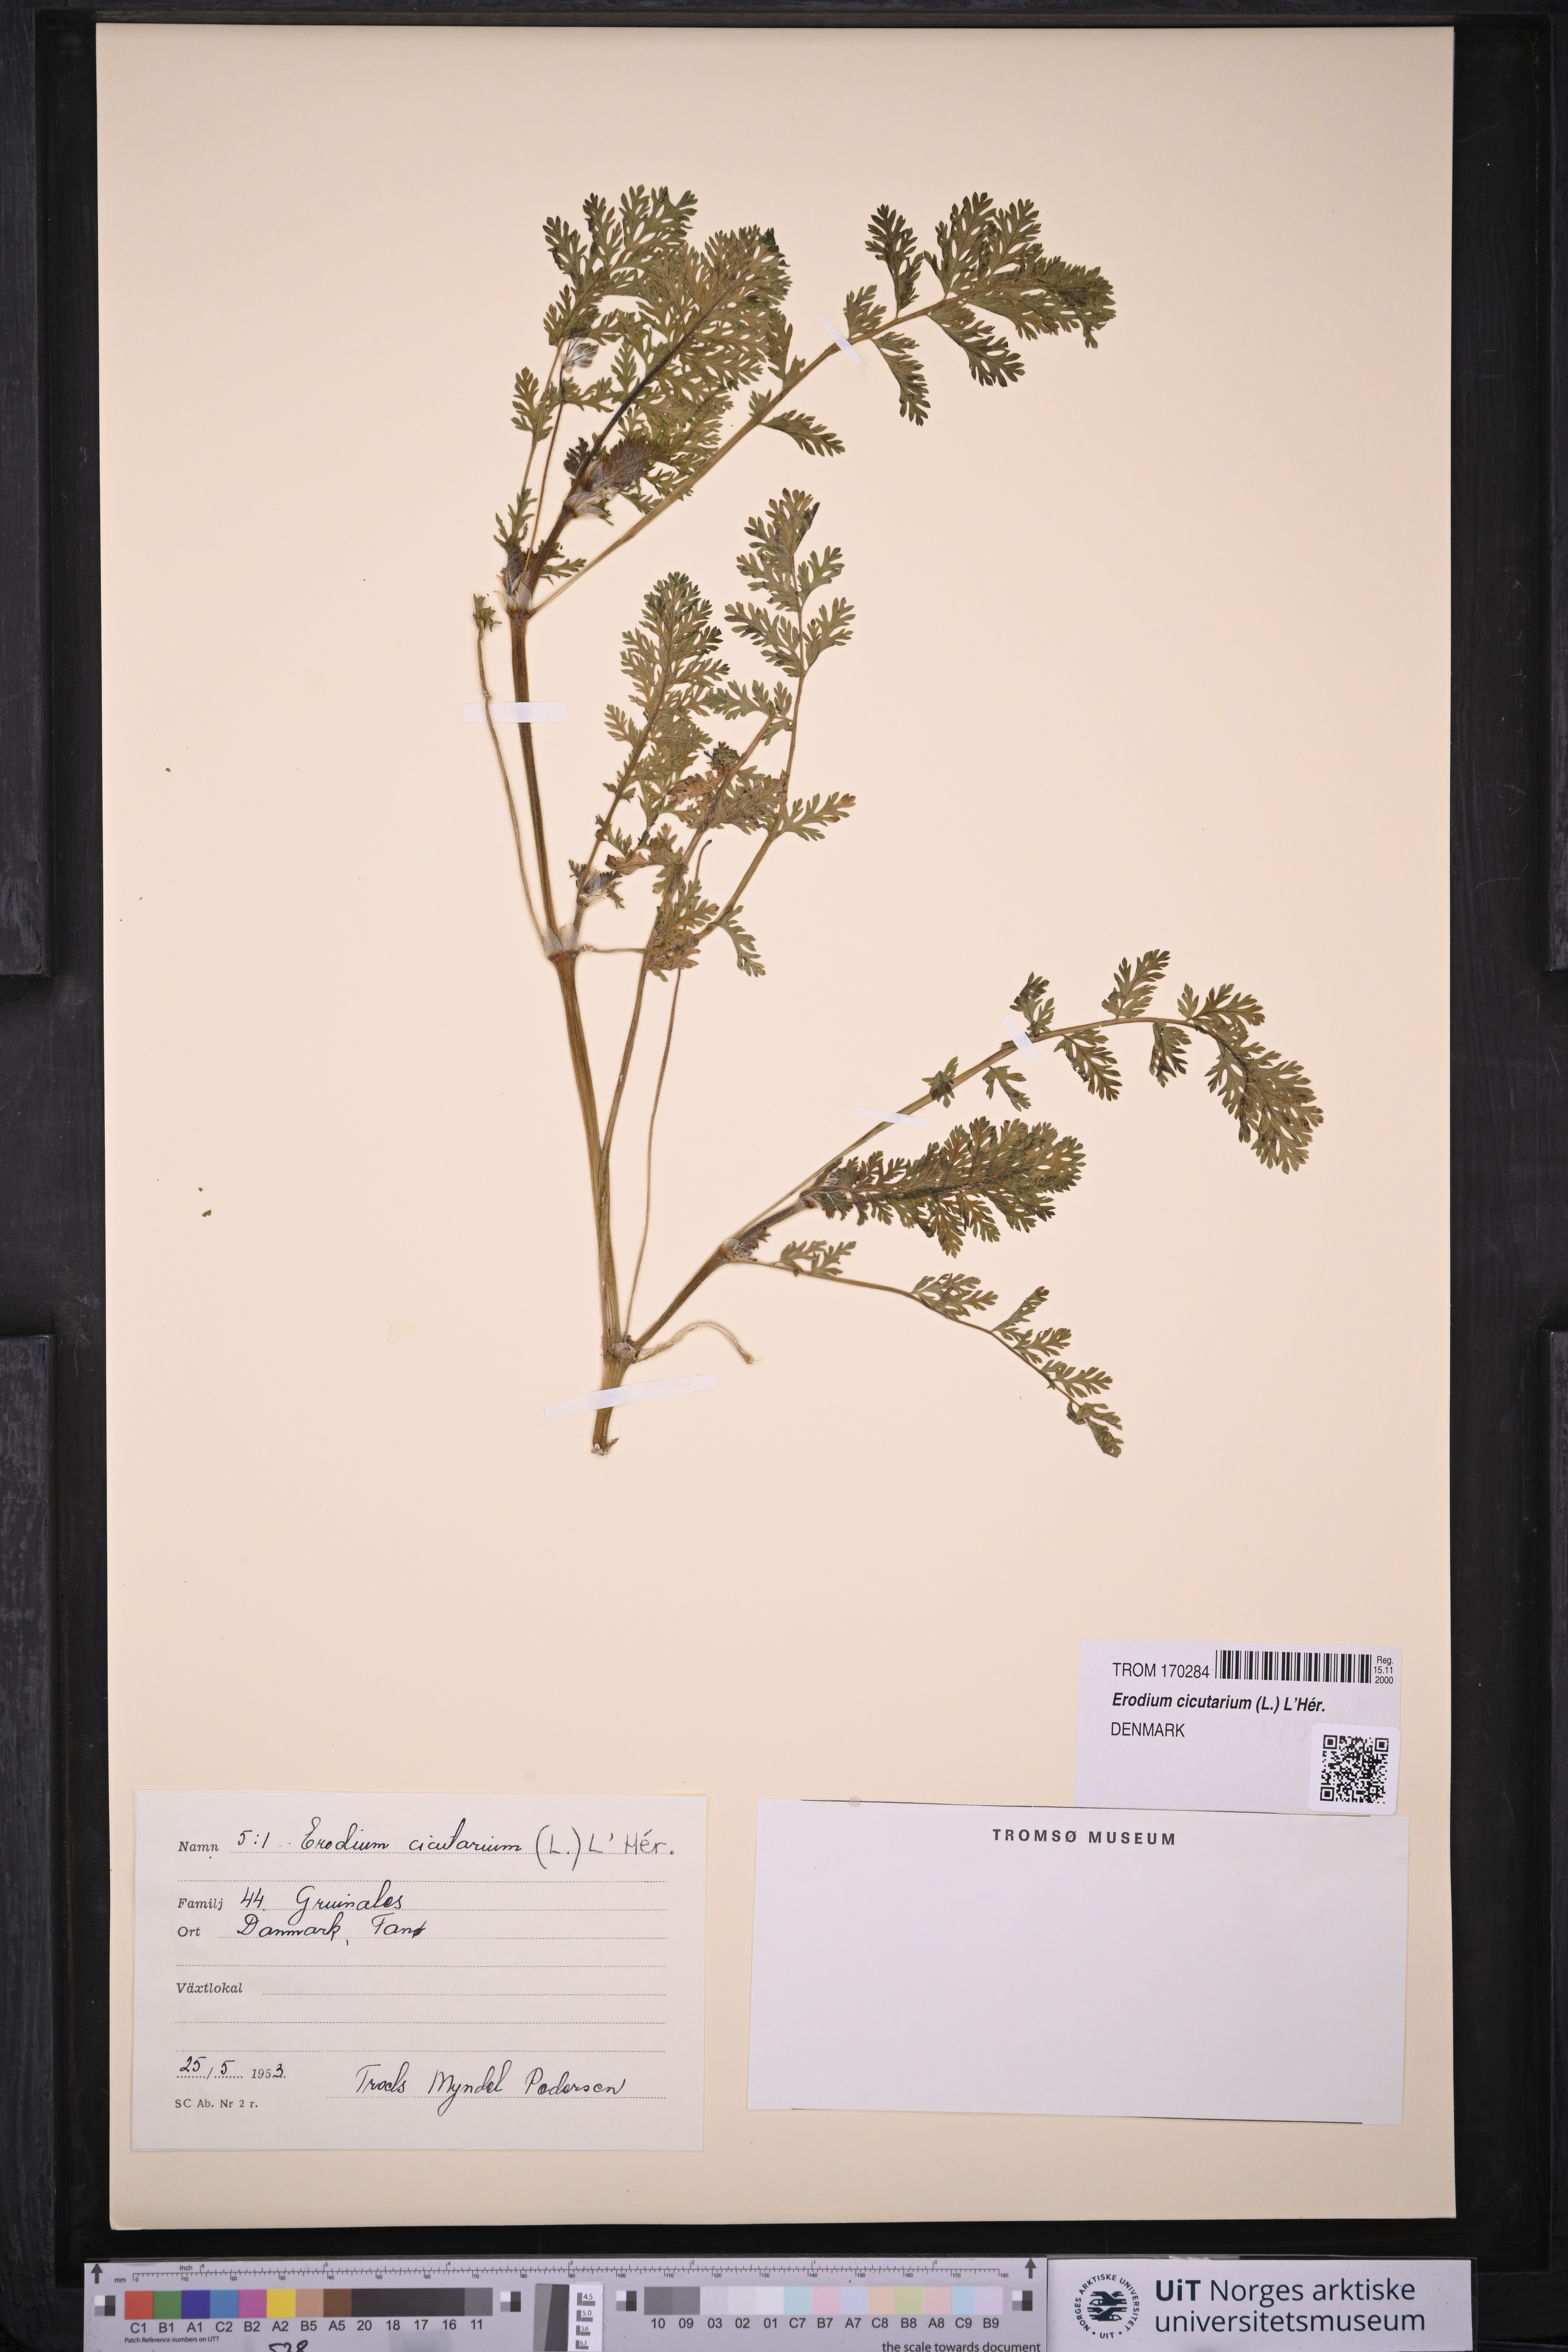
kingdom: Plantae
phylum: Tracheophyta
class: Magnoliopsida
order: Geraniales
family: Geraniaceae
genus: Erodium
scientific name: Erodium cicutarium
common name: Common stork's-bill
